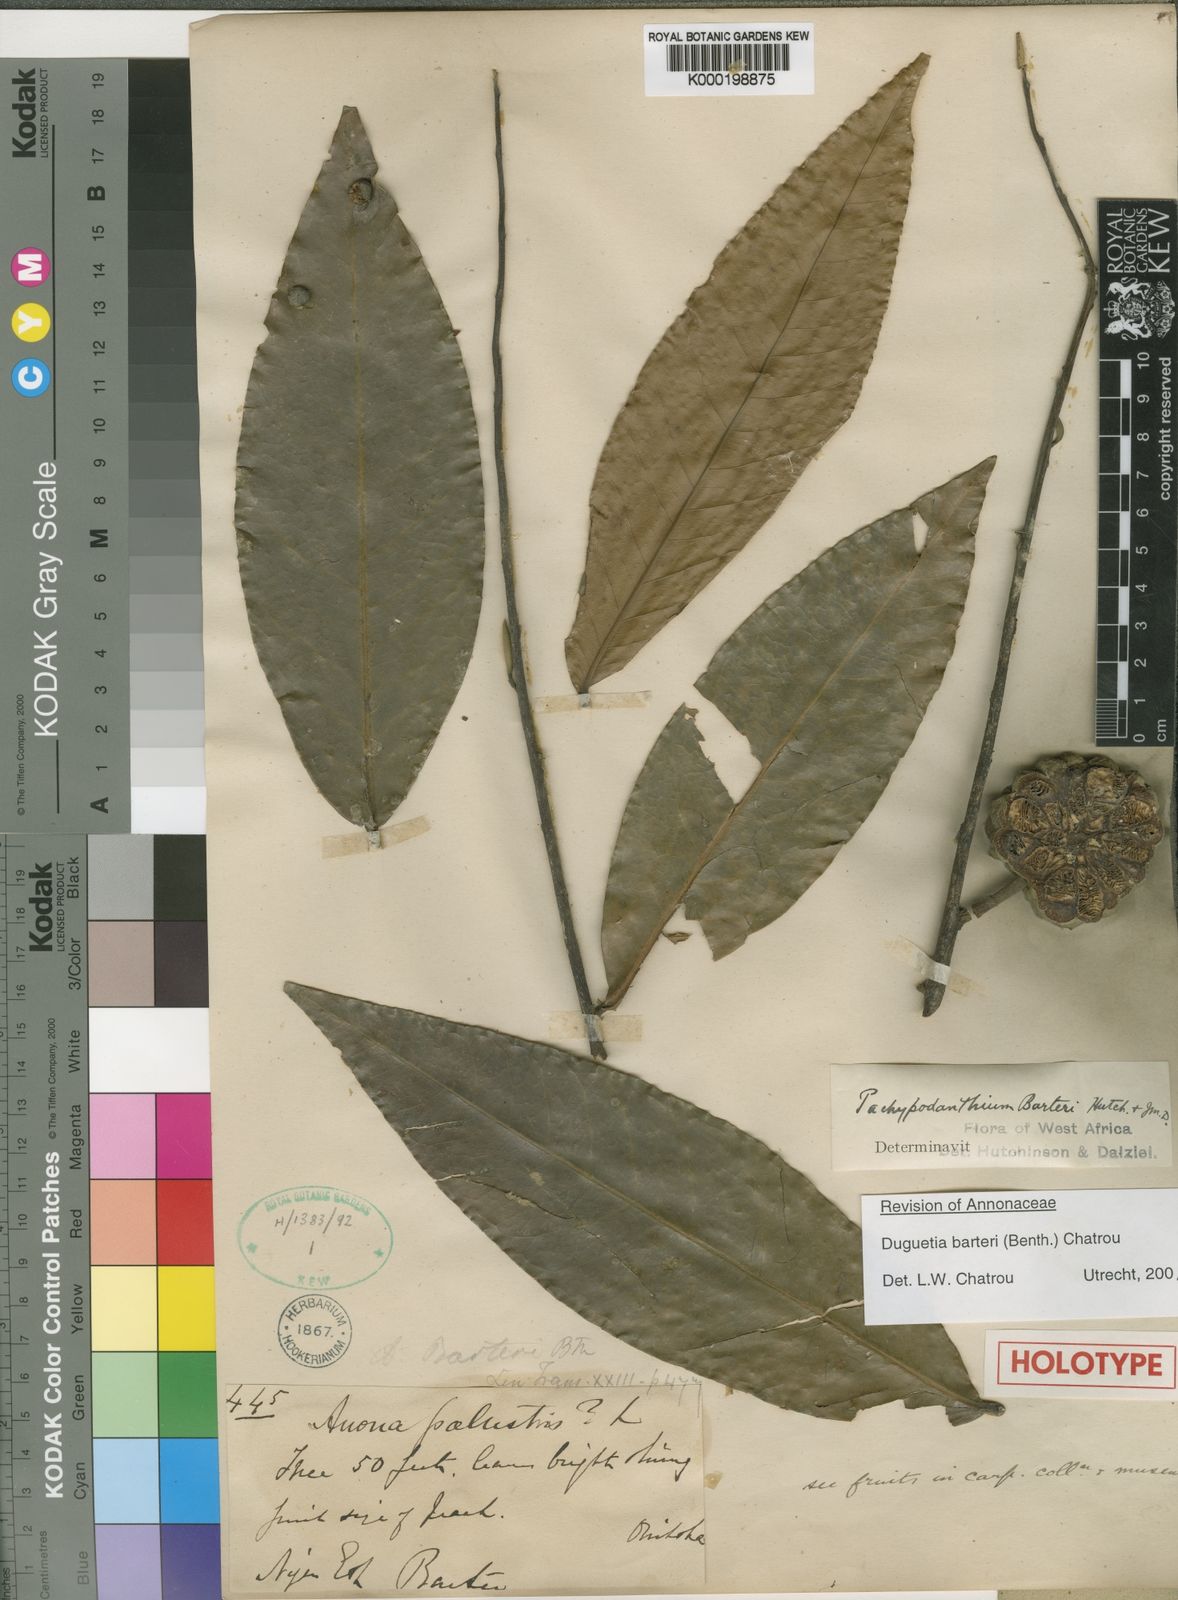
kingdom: Plantae
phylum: Tracheophyta
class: Magnoliopsida
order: Magnoliales
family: Annonaceae
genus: Duguetia
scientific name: Duguetia barteri
